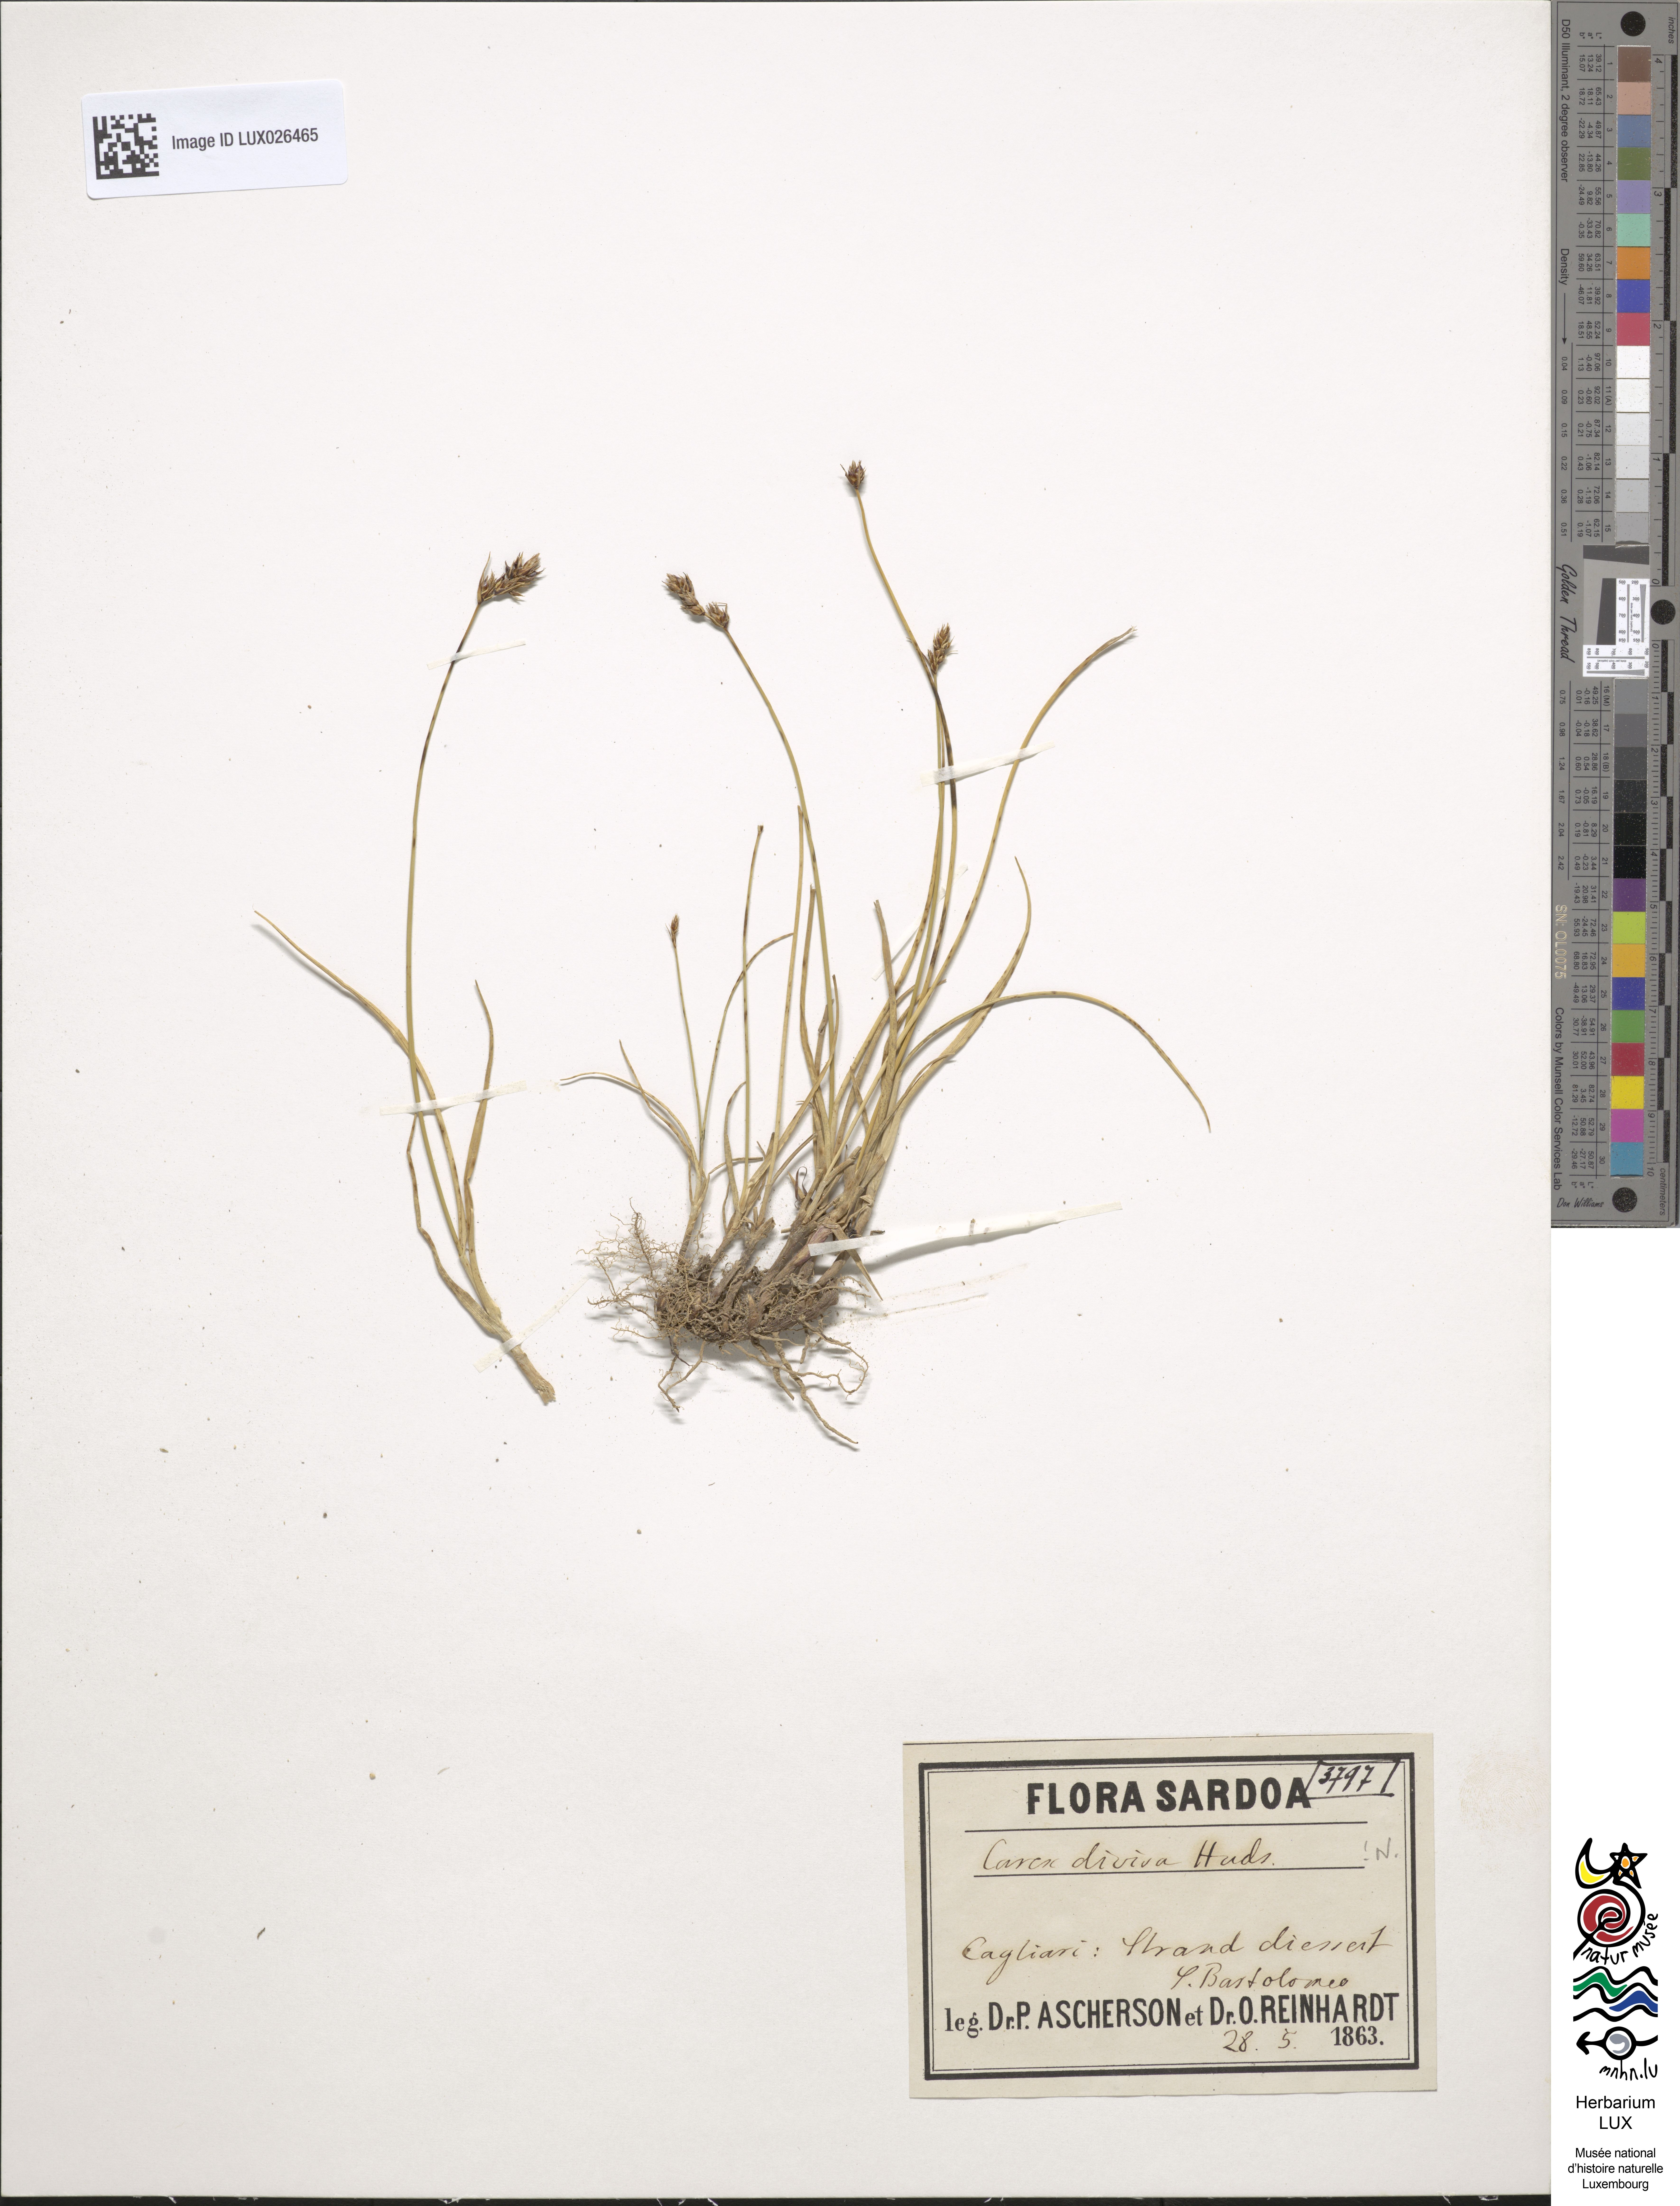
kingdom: Plantae
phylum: Tracheophyta
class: Liliopsida
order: Poales
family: Cyperaceae
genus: Carex
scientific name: Carex divisa
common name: Divided sedge
